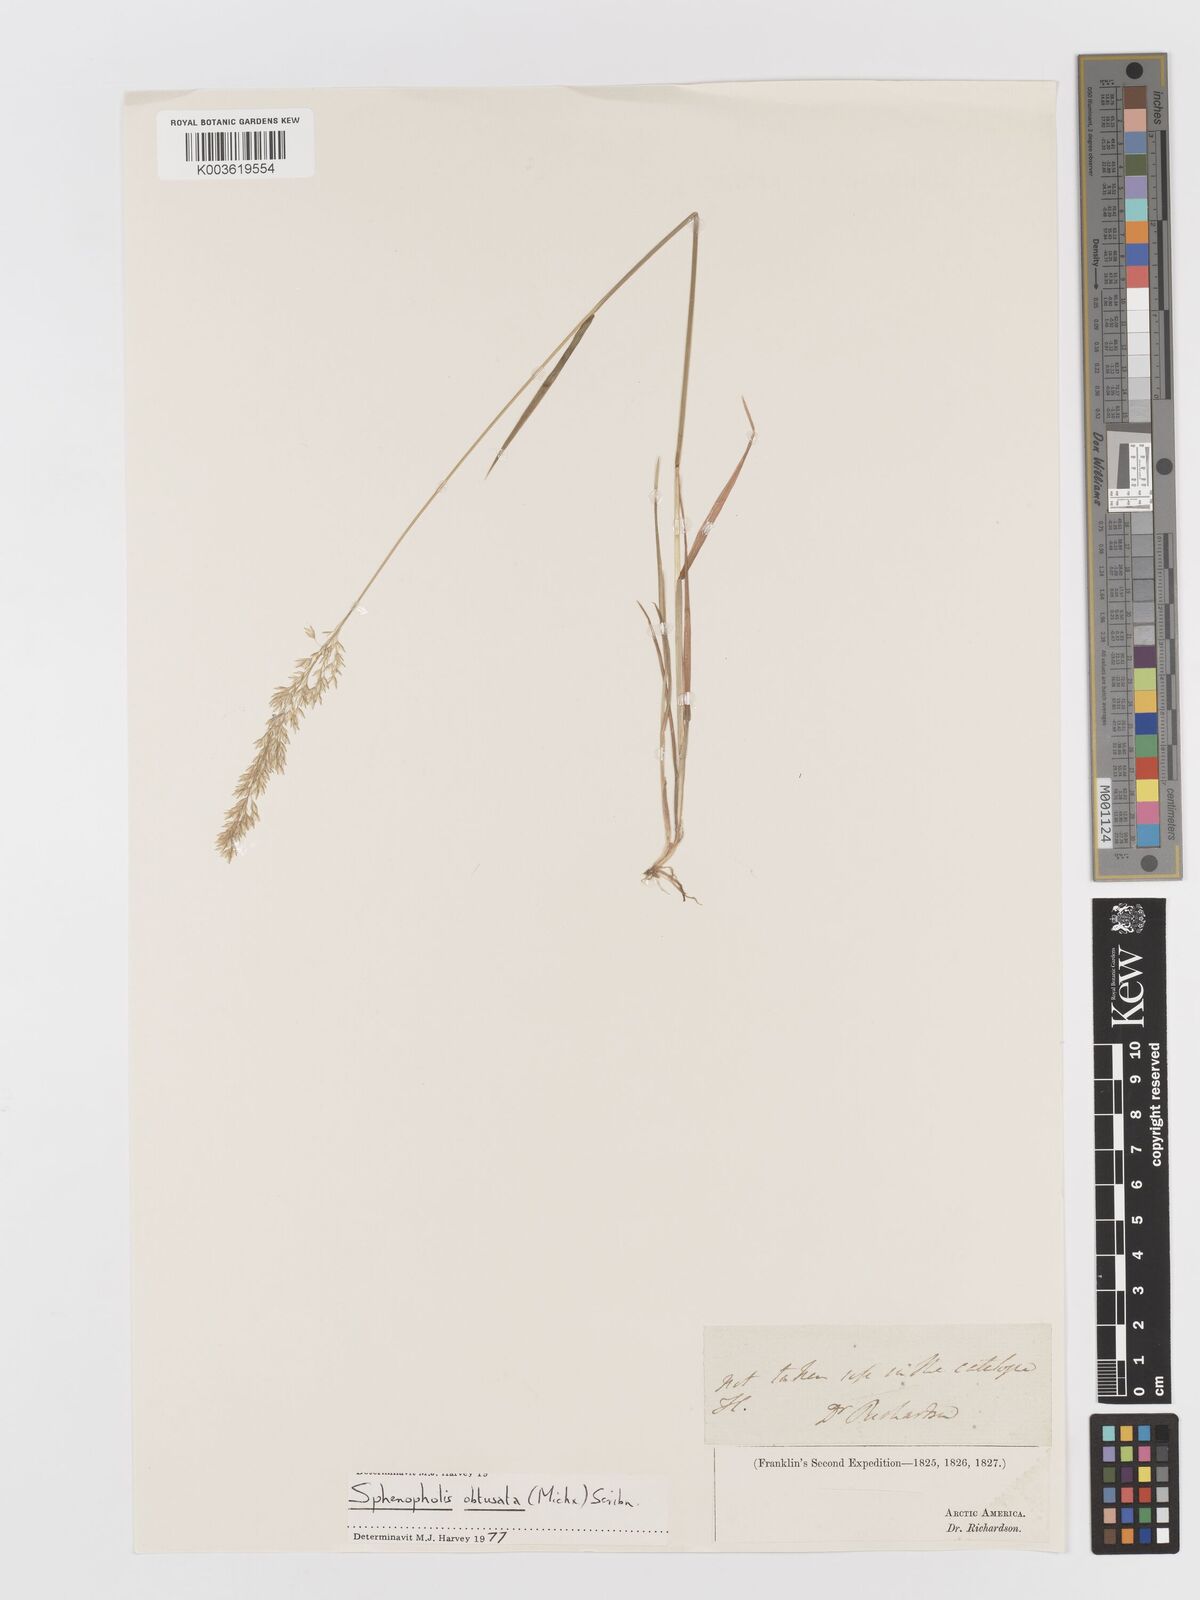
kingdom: Plantae
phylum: Tracheophyta
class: Liliopsida
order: Poales
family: Poaceae
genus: Sphenopholis
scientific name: Sphenopholis obtusata
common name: Prairie grass
